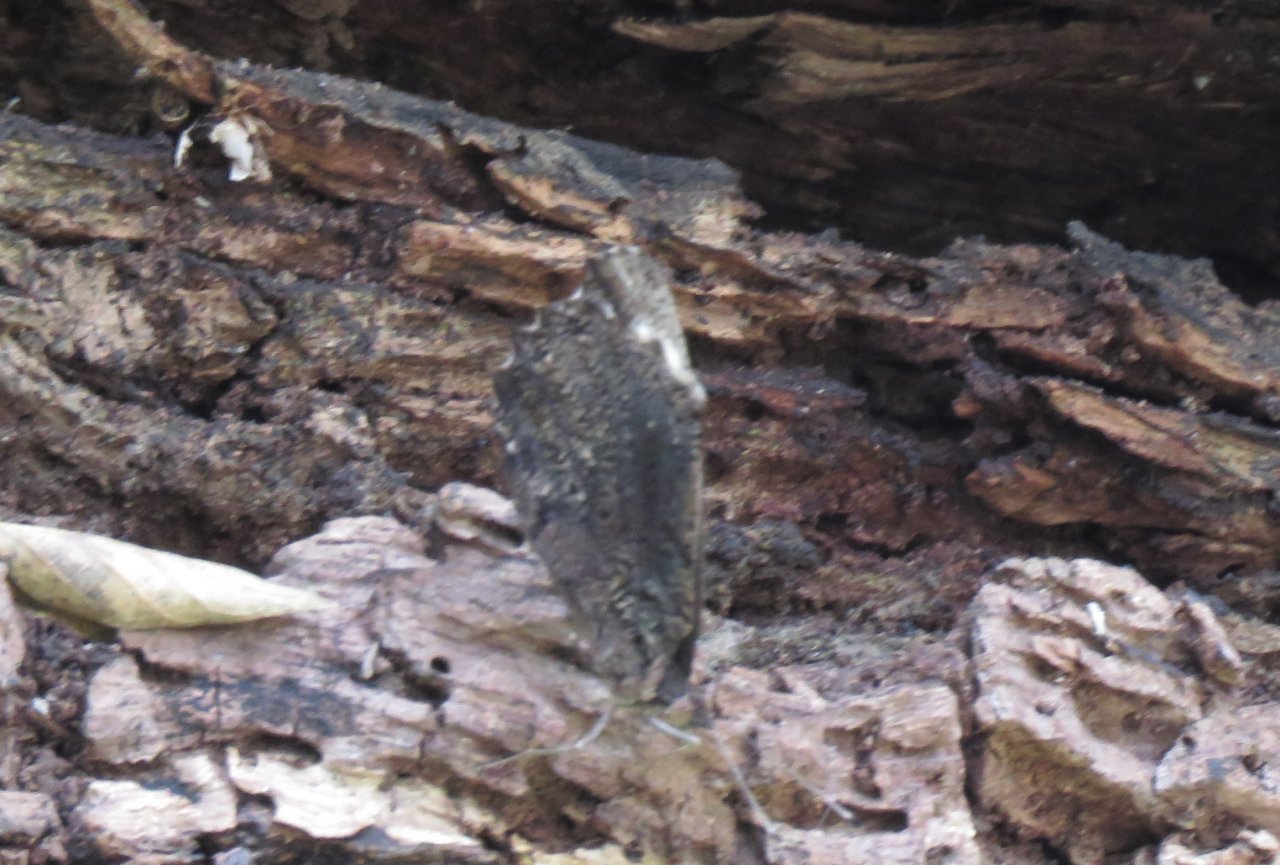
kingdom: Animalia
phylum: Arthropoda
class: Insecta
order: Lepidoptera
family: Nymphalidae
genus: Myscelia
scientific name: Myscelia ethusa
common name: Mexican Bluewing
